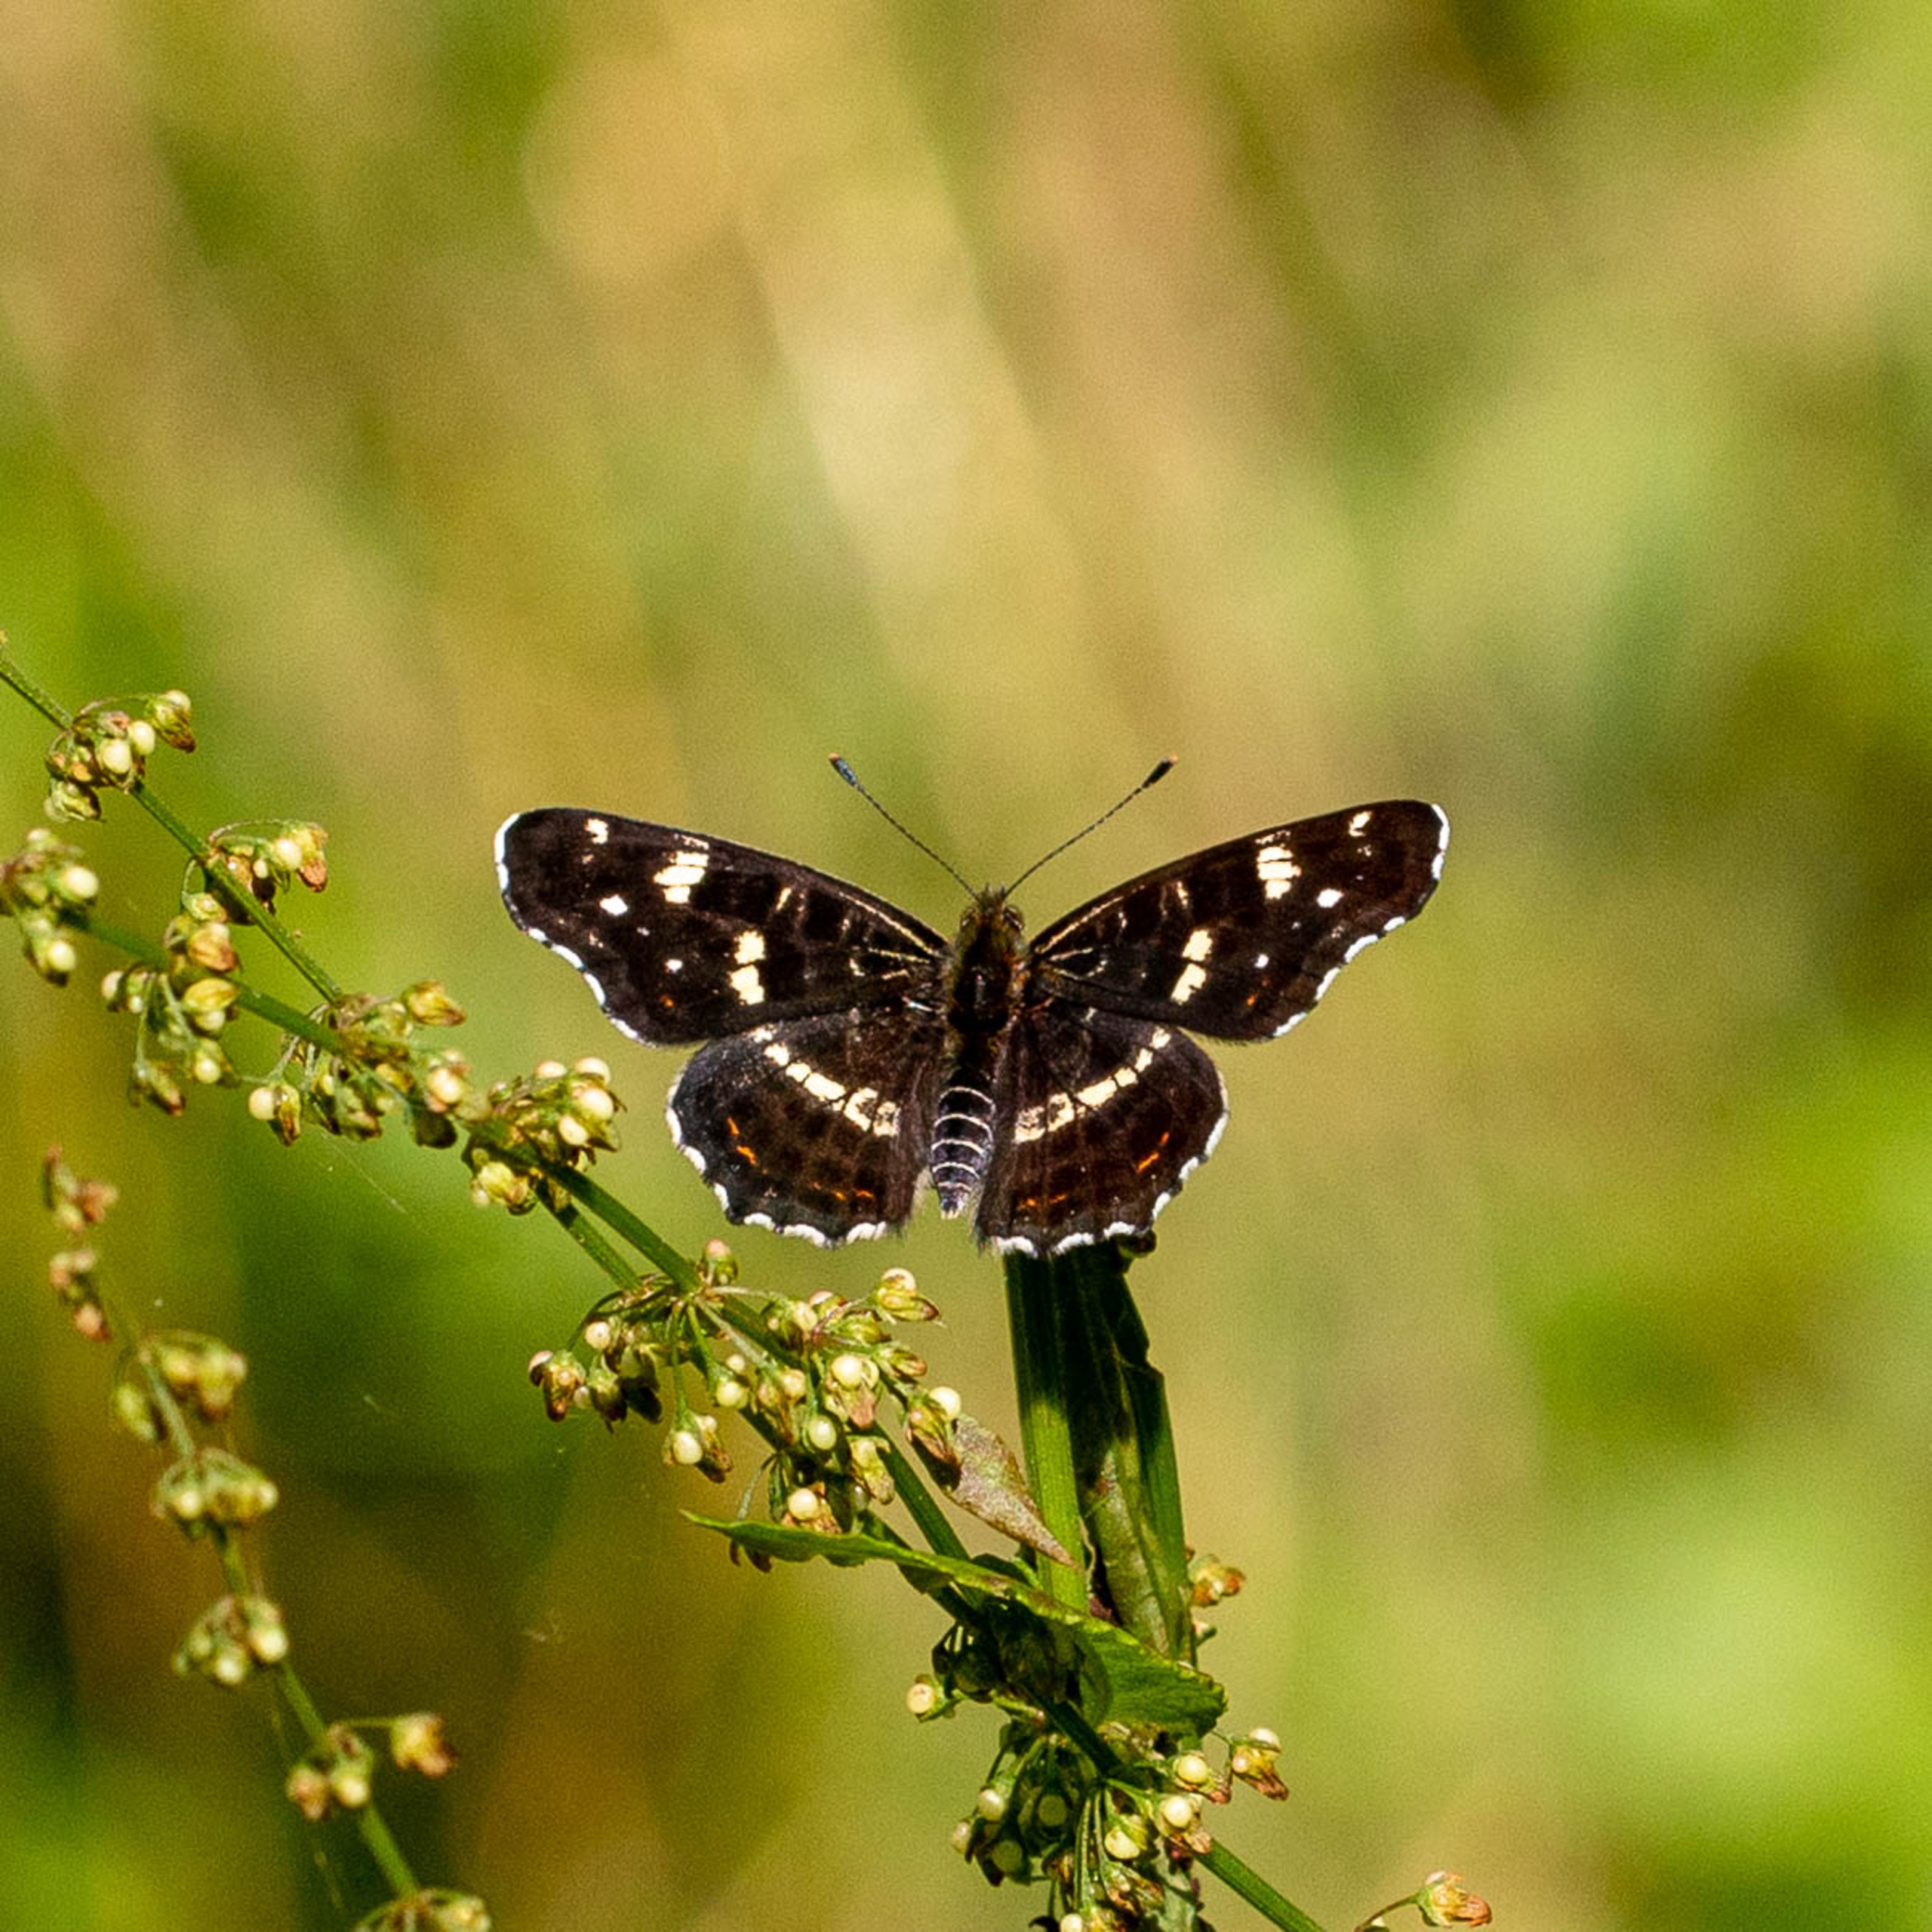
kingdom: Animalia
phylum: Arthropoda
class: Insecta
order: Lepidoptera
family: Nymphalidae
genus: Araschnia
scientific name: Araschnia levana
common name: Nældesommerfugl
